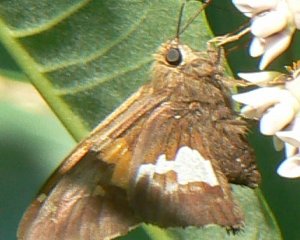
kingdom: Animalia
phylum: Arthropoda
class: Insecta
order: Lepidoptera
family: Hesperiidae
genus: Epargyreus
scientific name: Epargyreus clarus
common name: Silver-spotted Skipper
